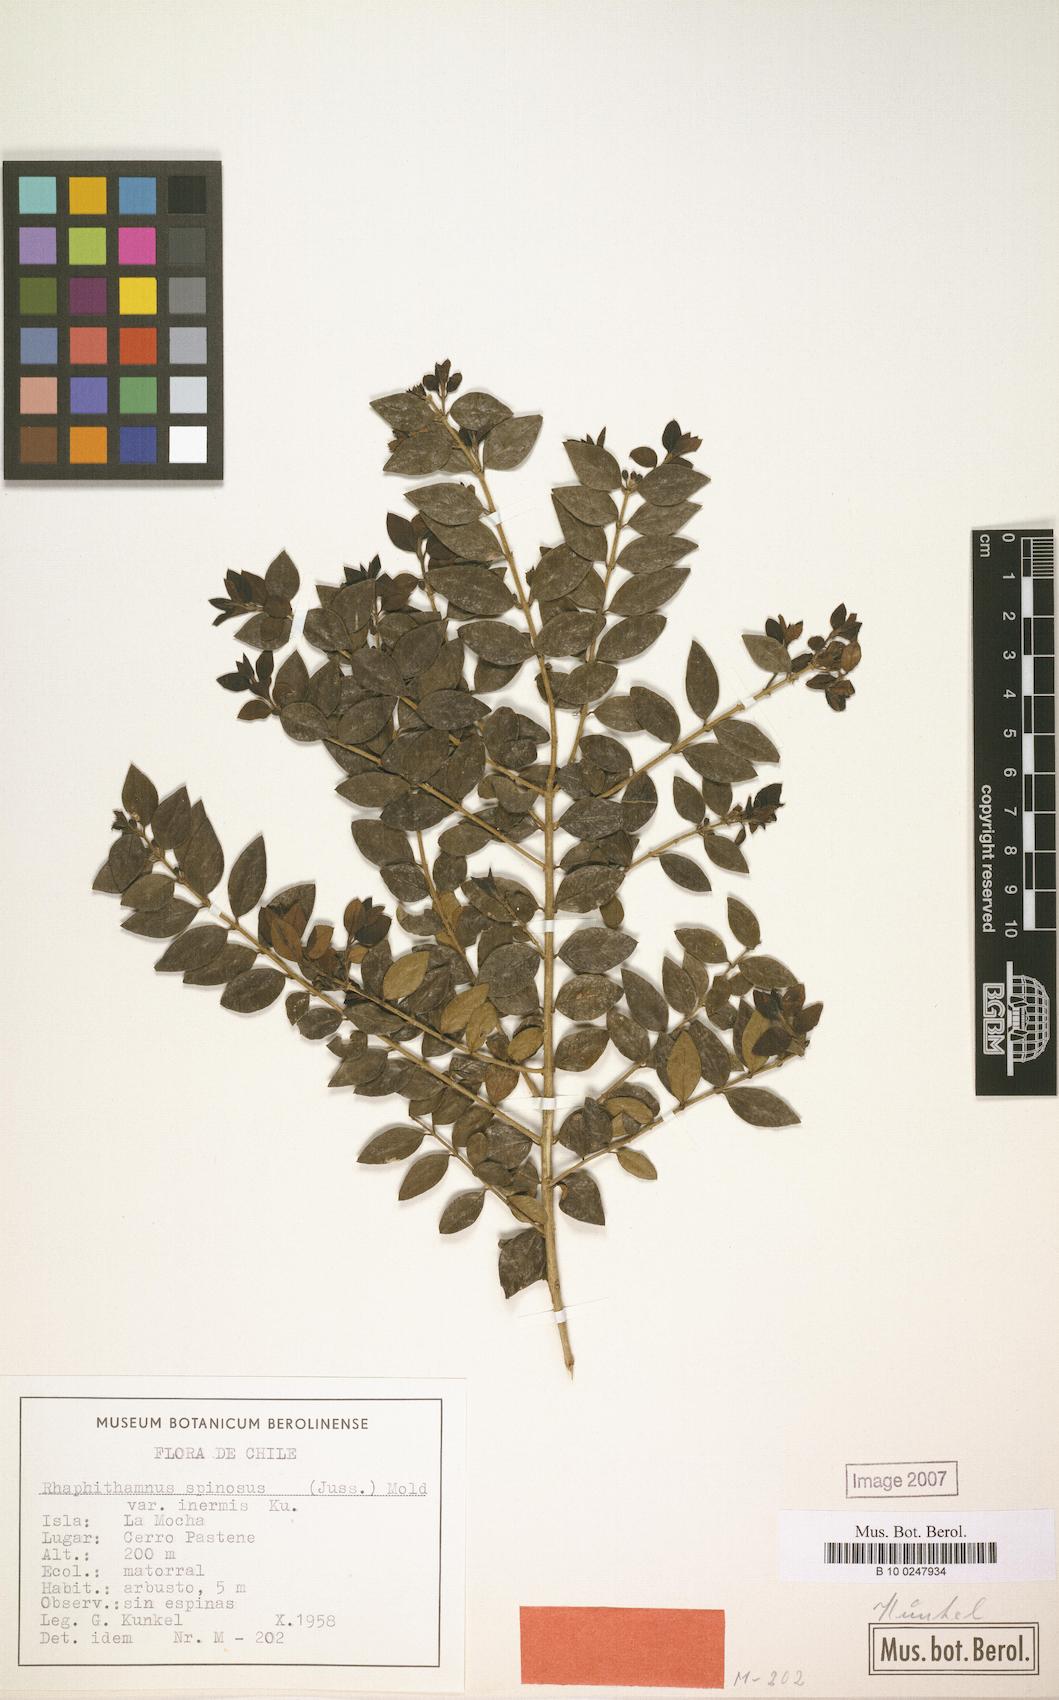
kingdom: Plantae
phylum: Tracheophyta
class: Magnoliopsida
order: Lamiales
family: Verbenaceae
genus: Rhaphithamnus
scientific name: Rhaphithamnus spinosus
